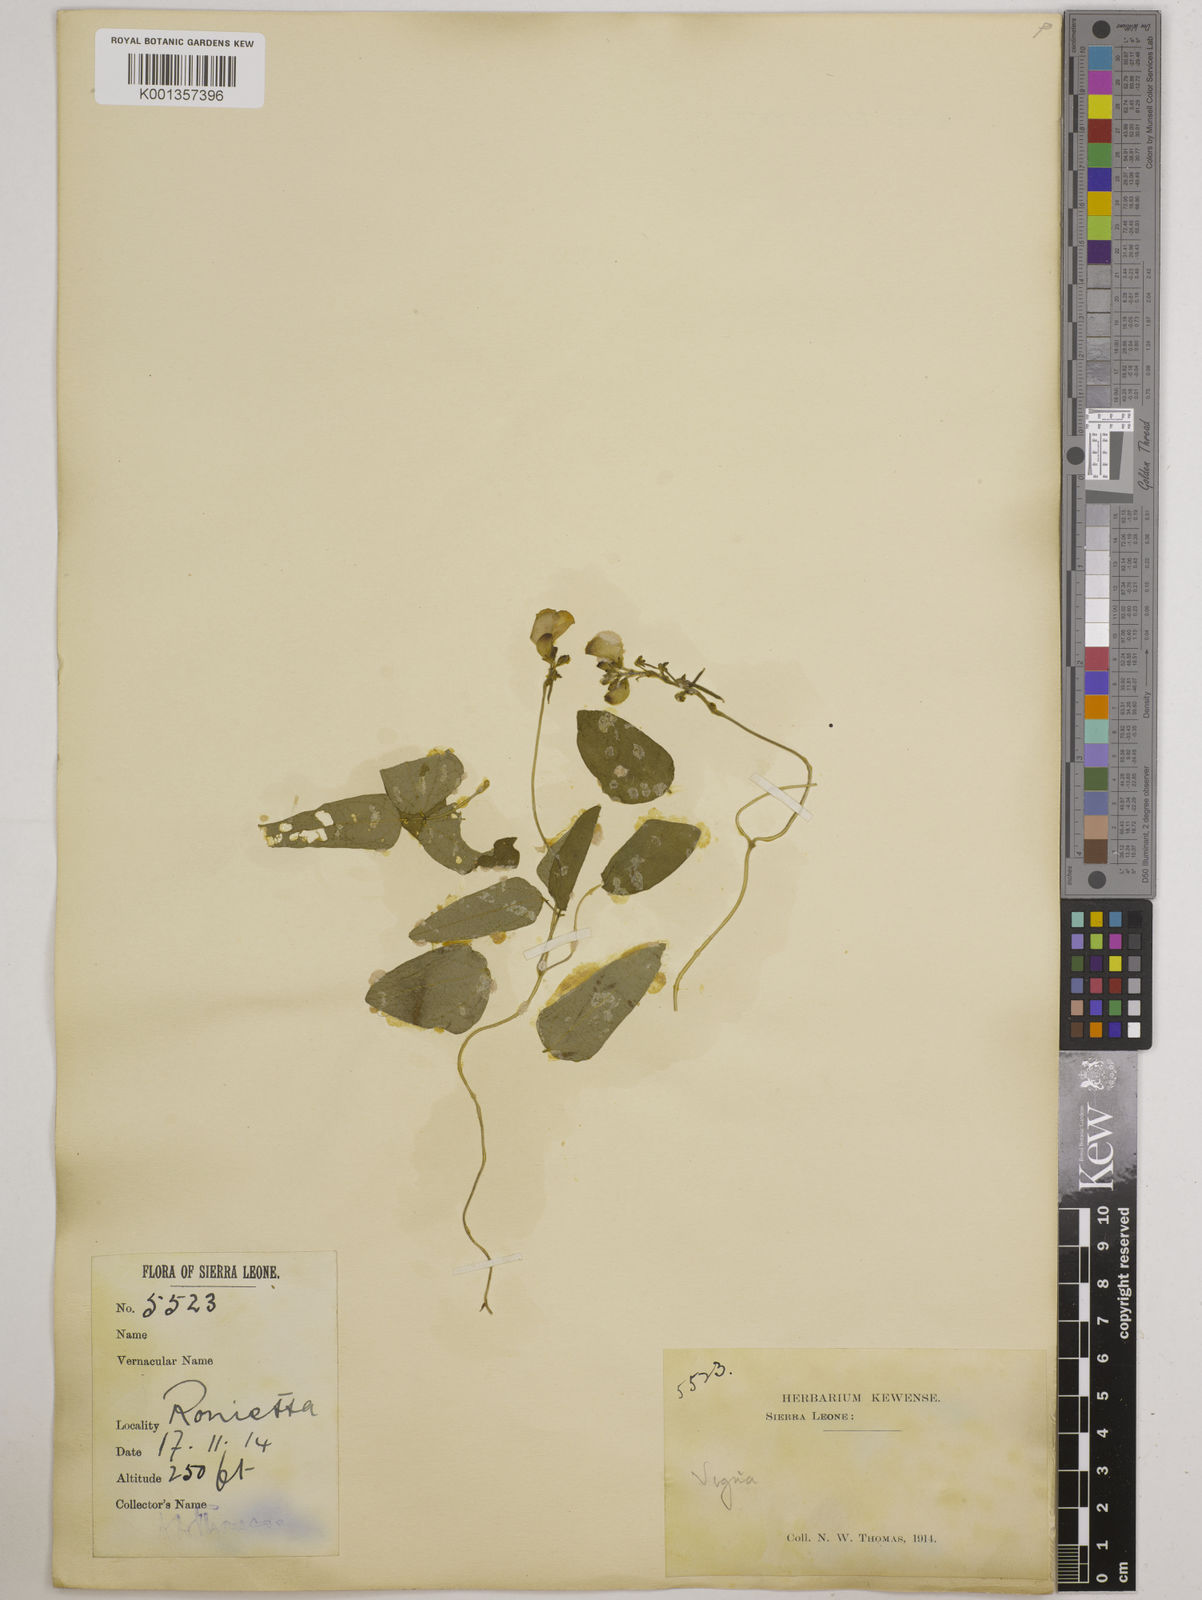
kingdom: Plantae
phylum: Tracheophyta
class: Magnoliopsida
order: Fabales
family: Fabaceae
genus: Vigna
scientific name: Vigna gracilis
